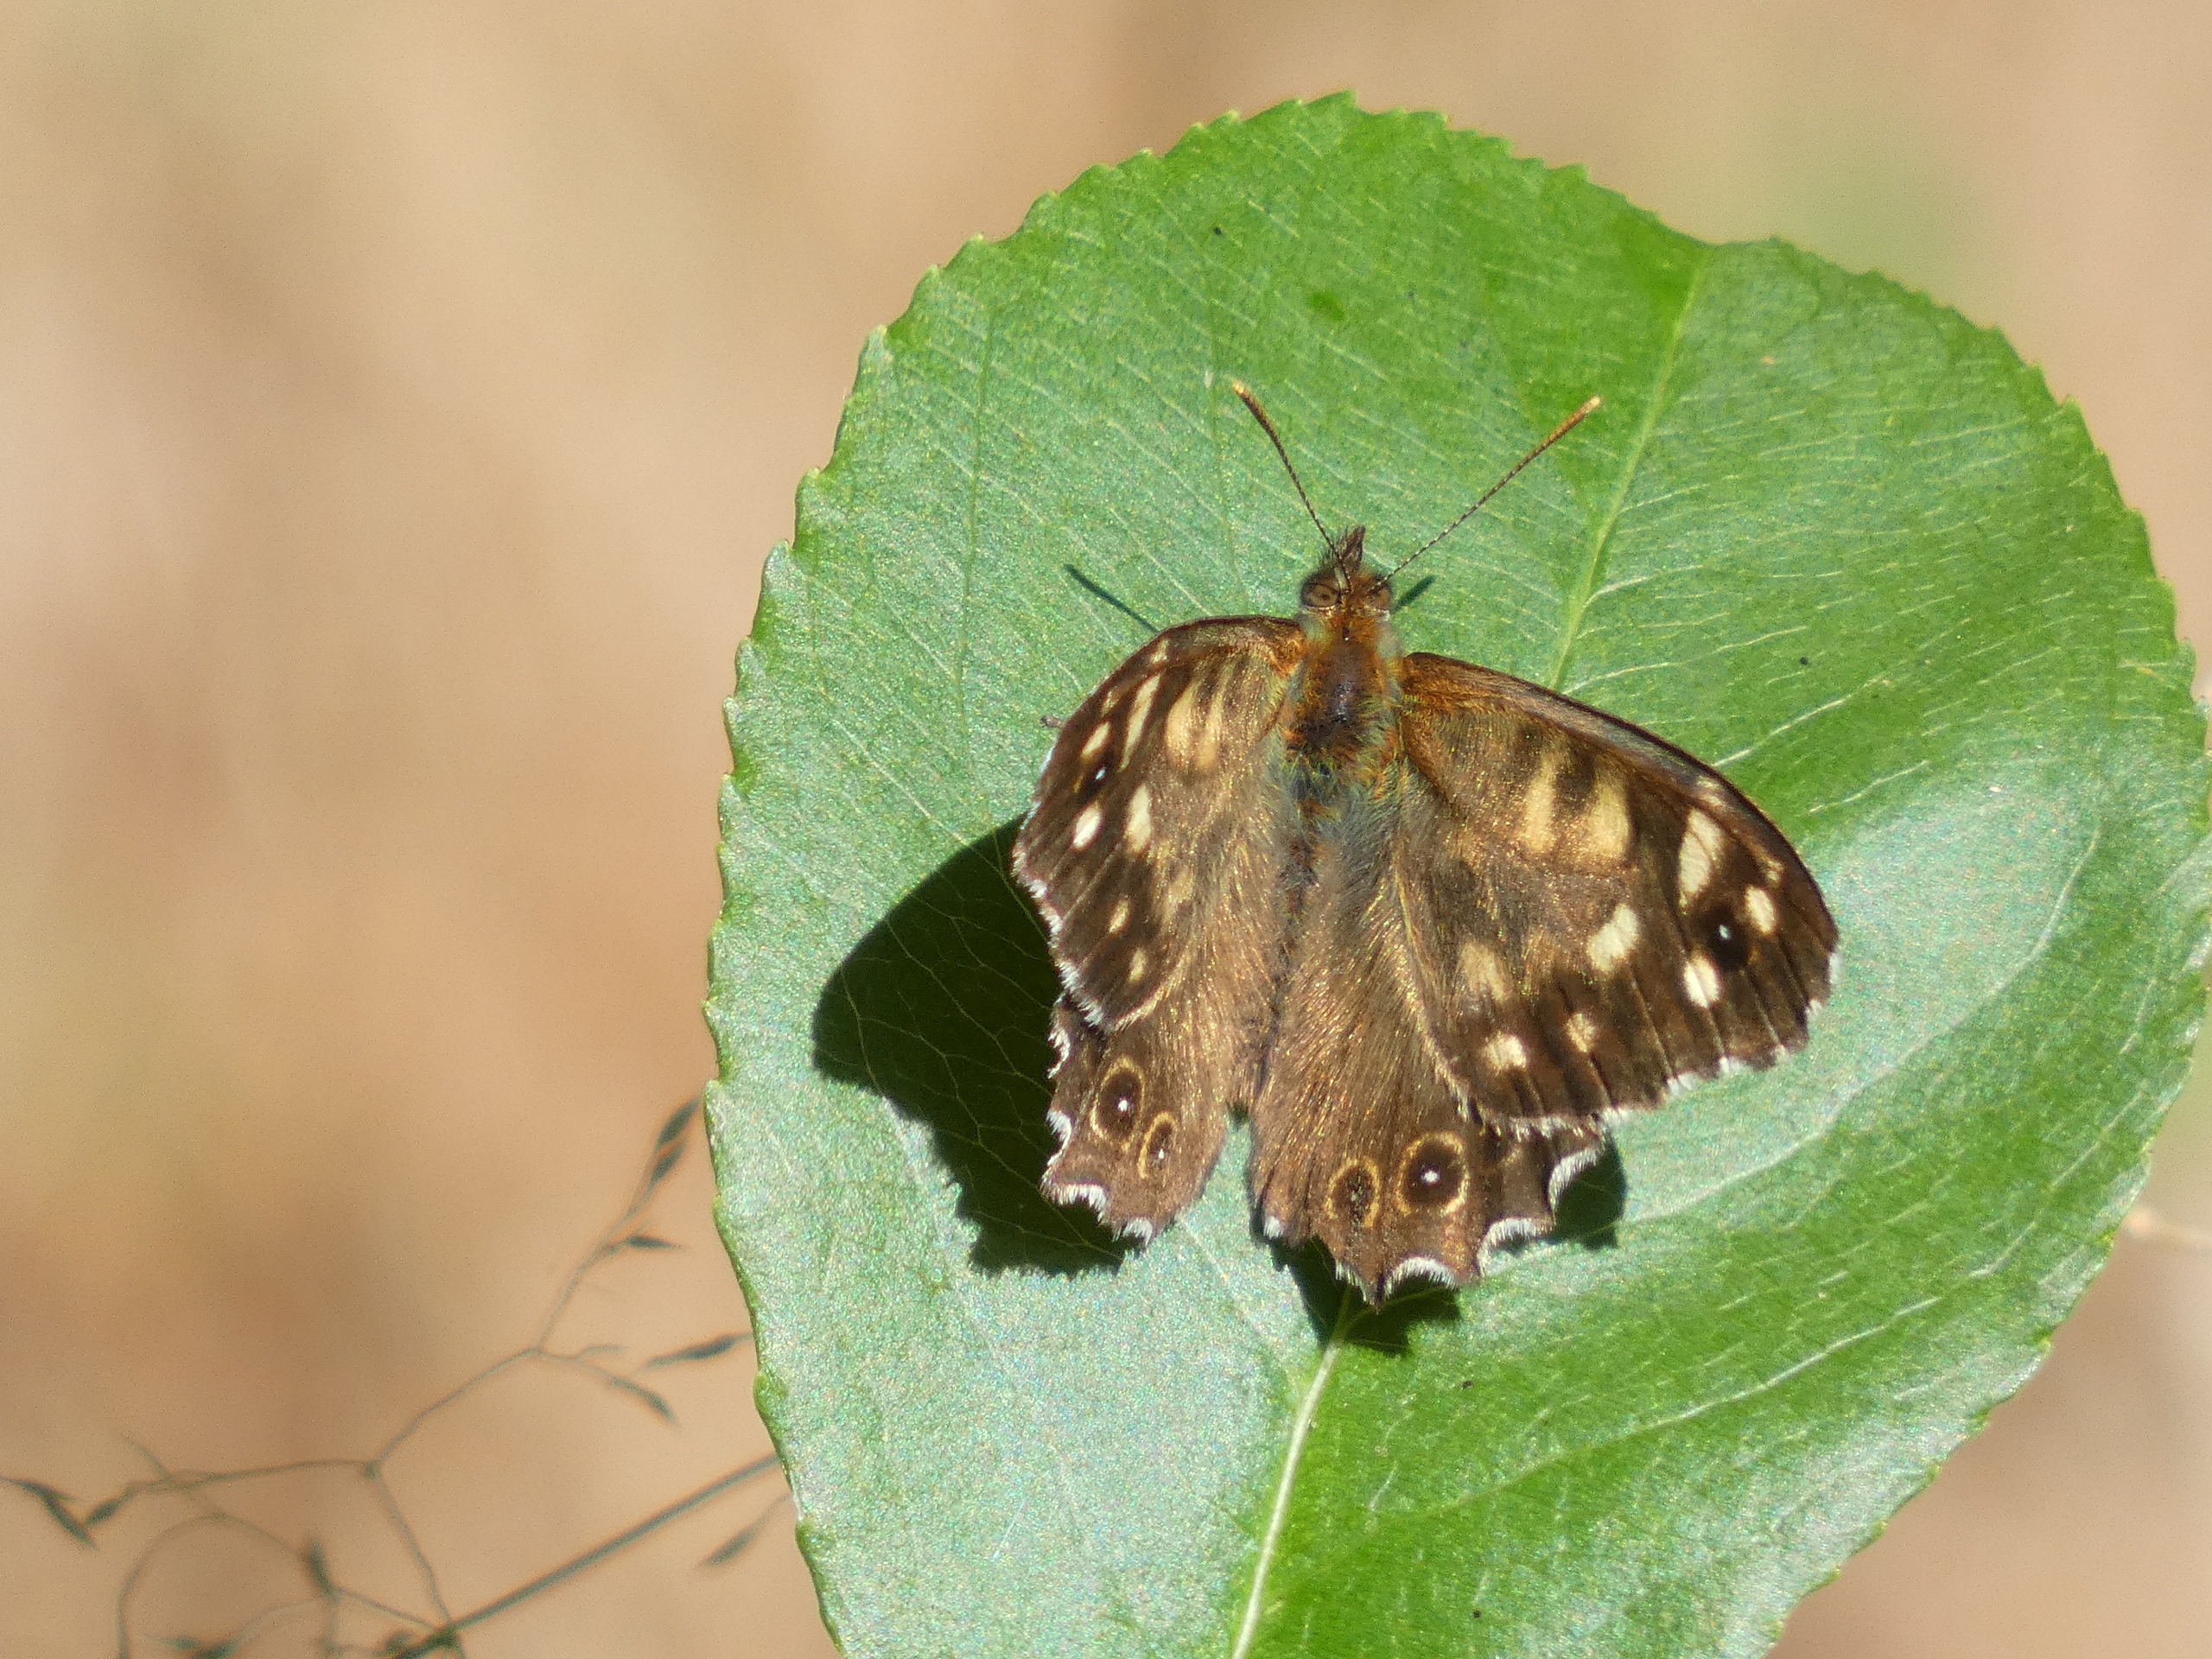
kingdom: Animalia
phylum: Arthropoda
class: Insecta
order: Lepidoptera
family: Nymphalidae
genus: Pararge
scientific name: Pararge aegeria
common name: Skovrandøje
